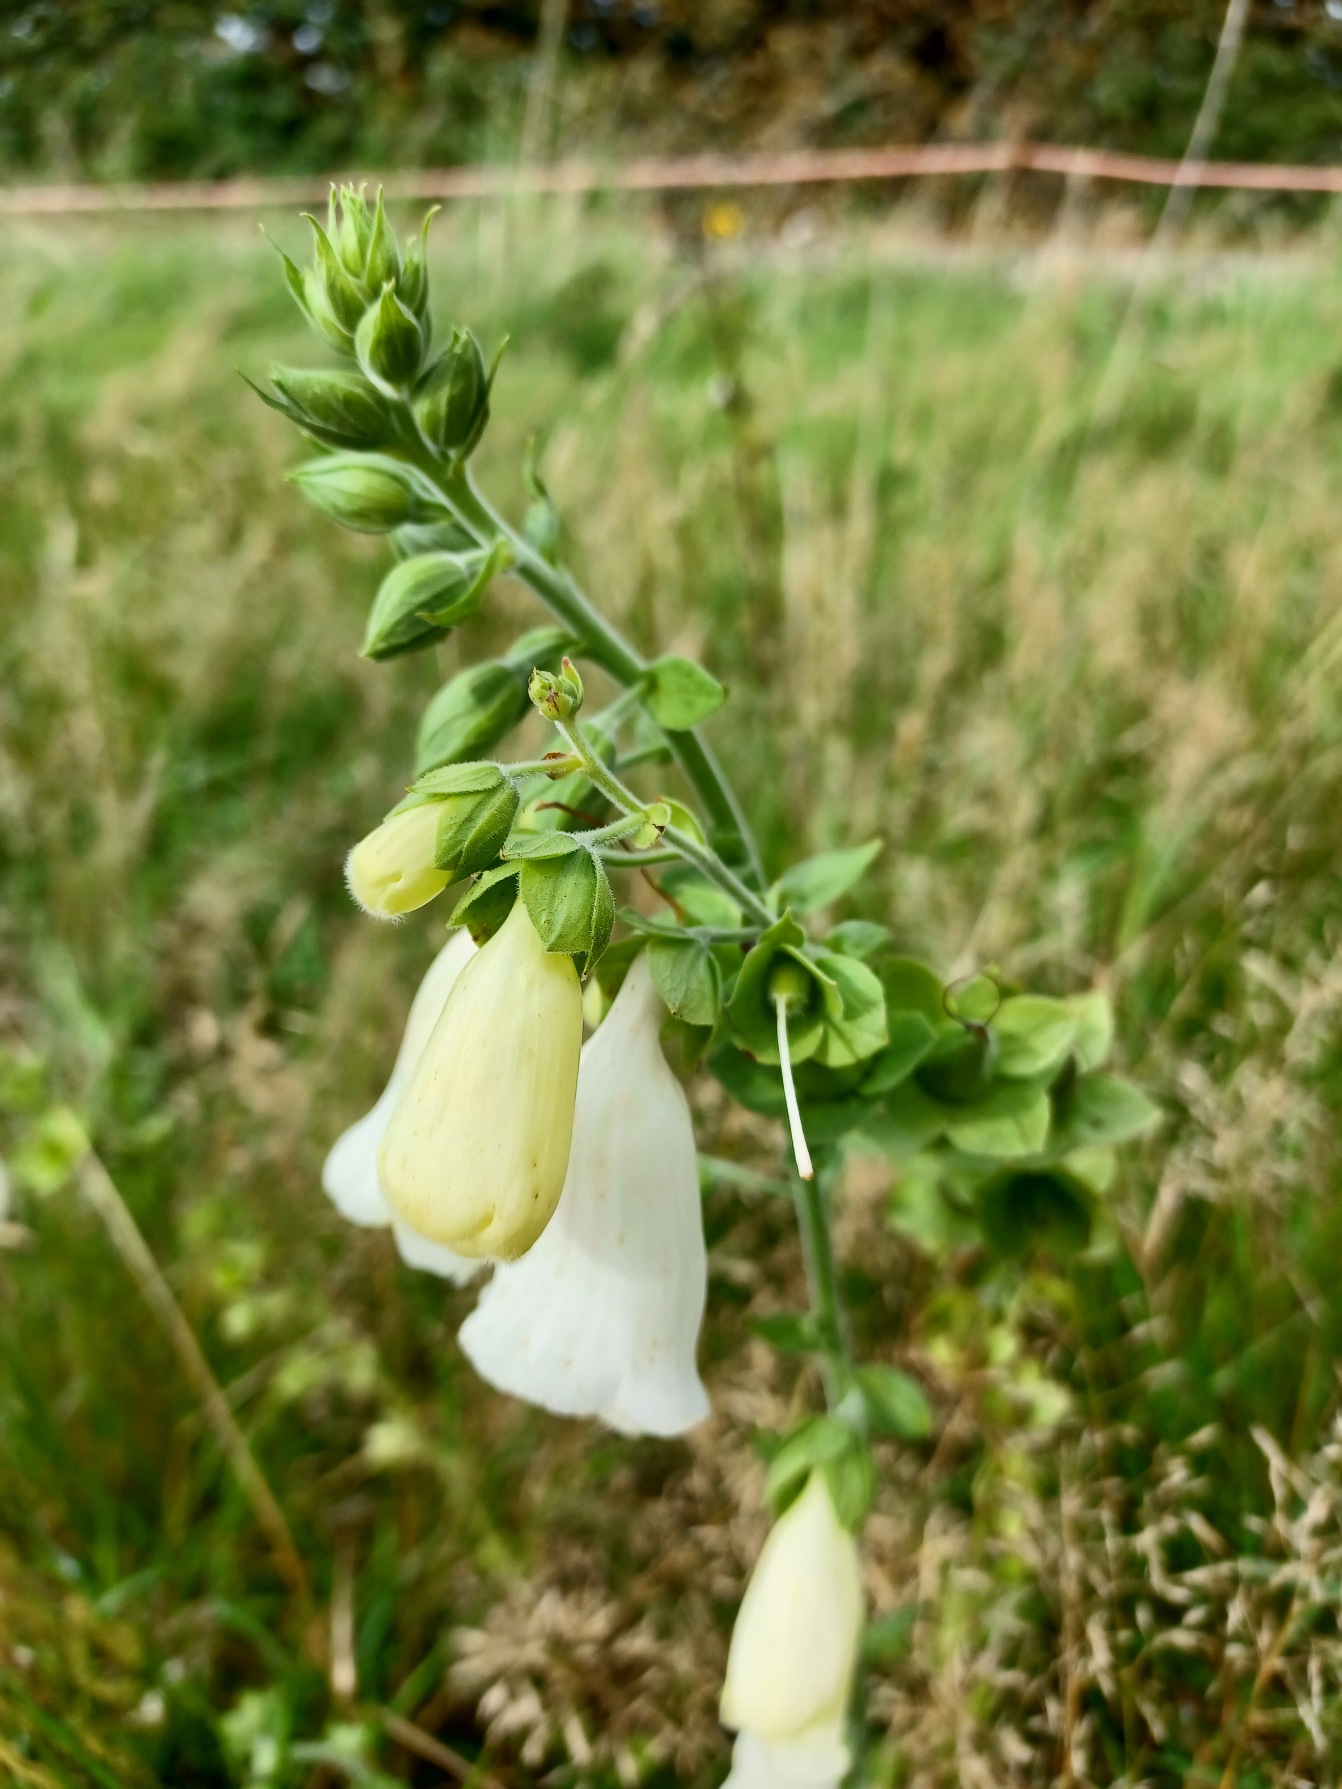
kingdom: Plantae
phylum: Tracheophyta
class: Magnoliopsida
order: Lamiales
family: Plantaginaceae
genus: Digitalis
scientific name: Digitalis purpurea
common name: Almindelig fingerbøl
